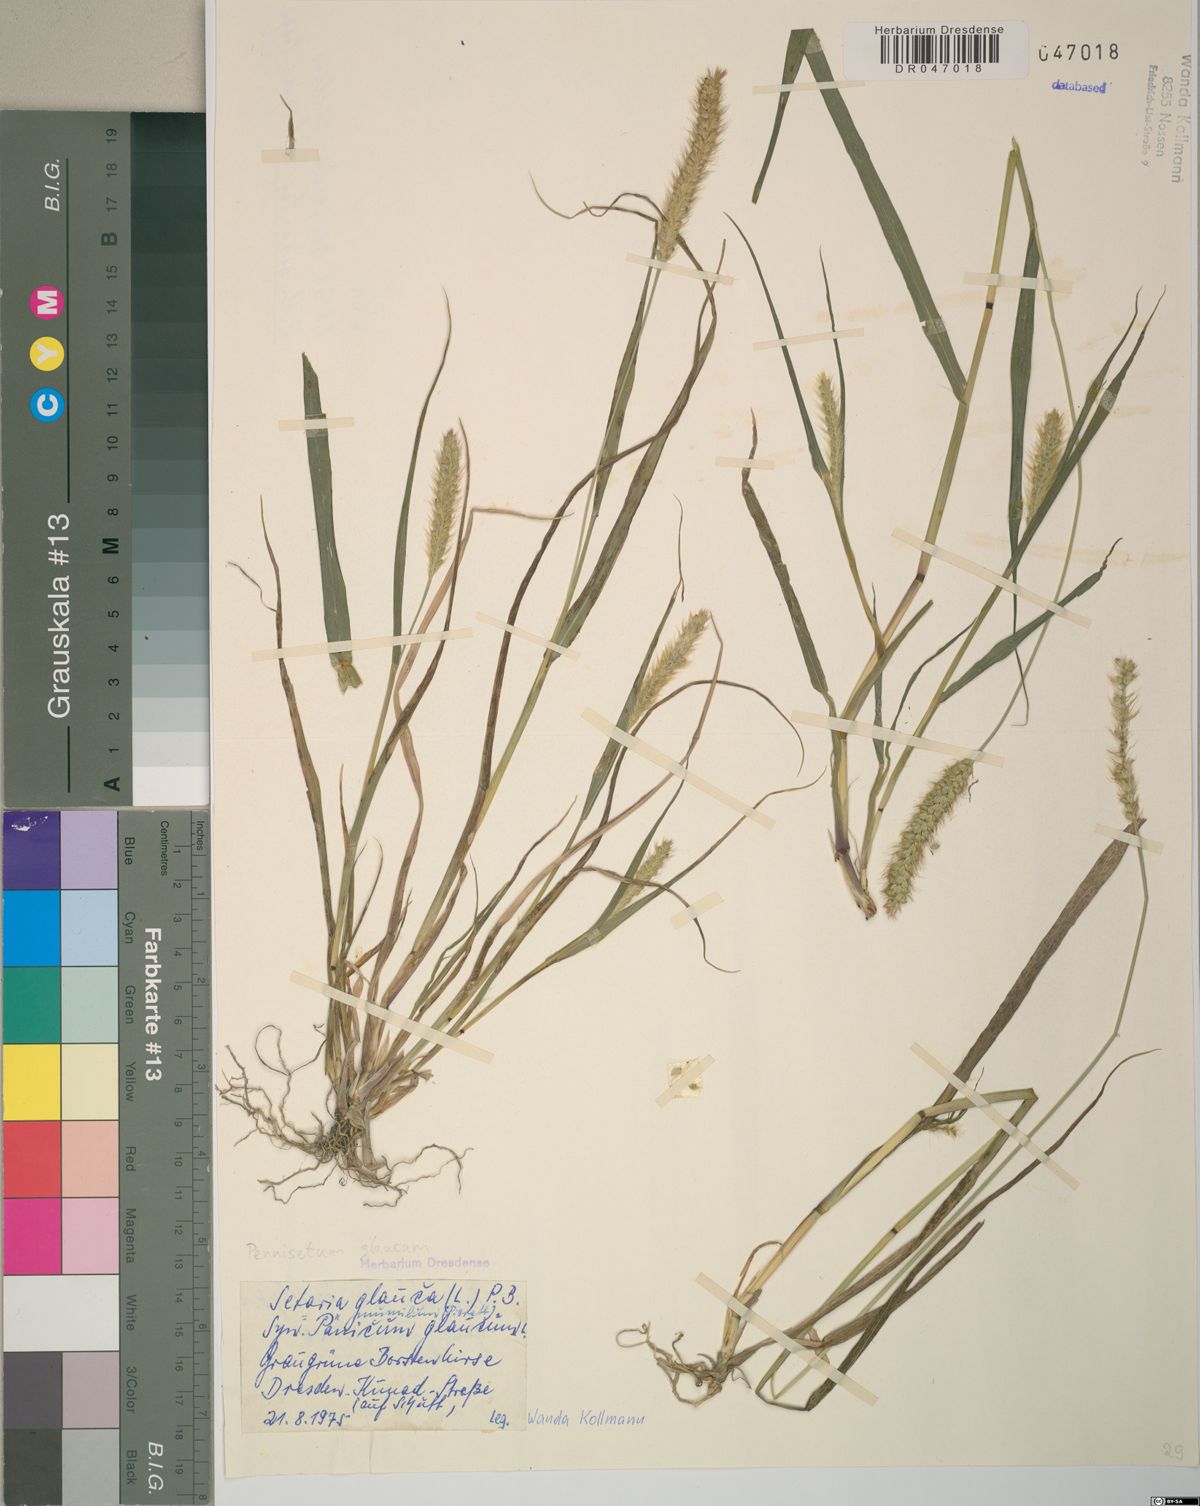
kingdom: Plantae
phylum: Tracheophyta
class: Liliopsida
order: Poales
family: Poaceae
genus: Cenchrus
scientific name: Cenchrus americanus
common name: Pearl millet
